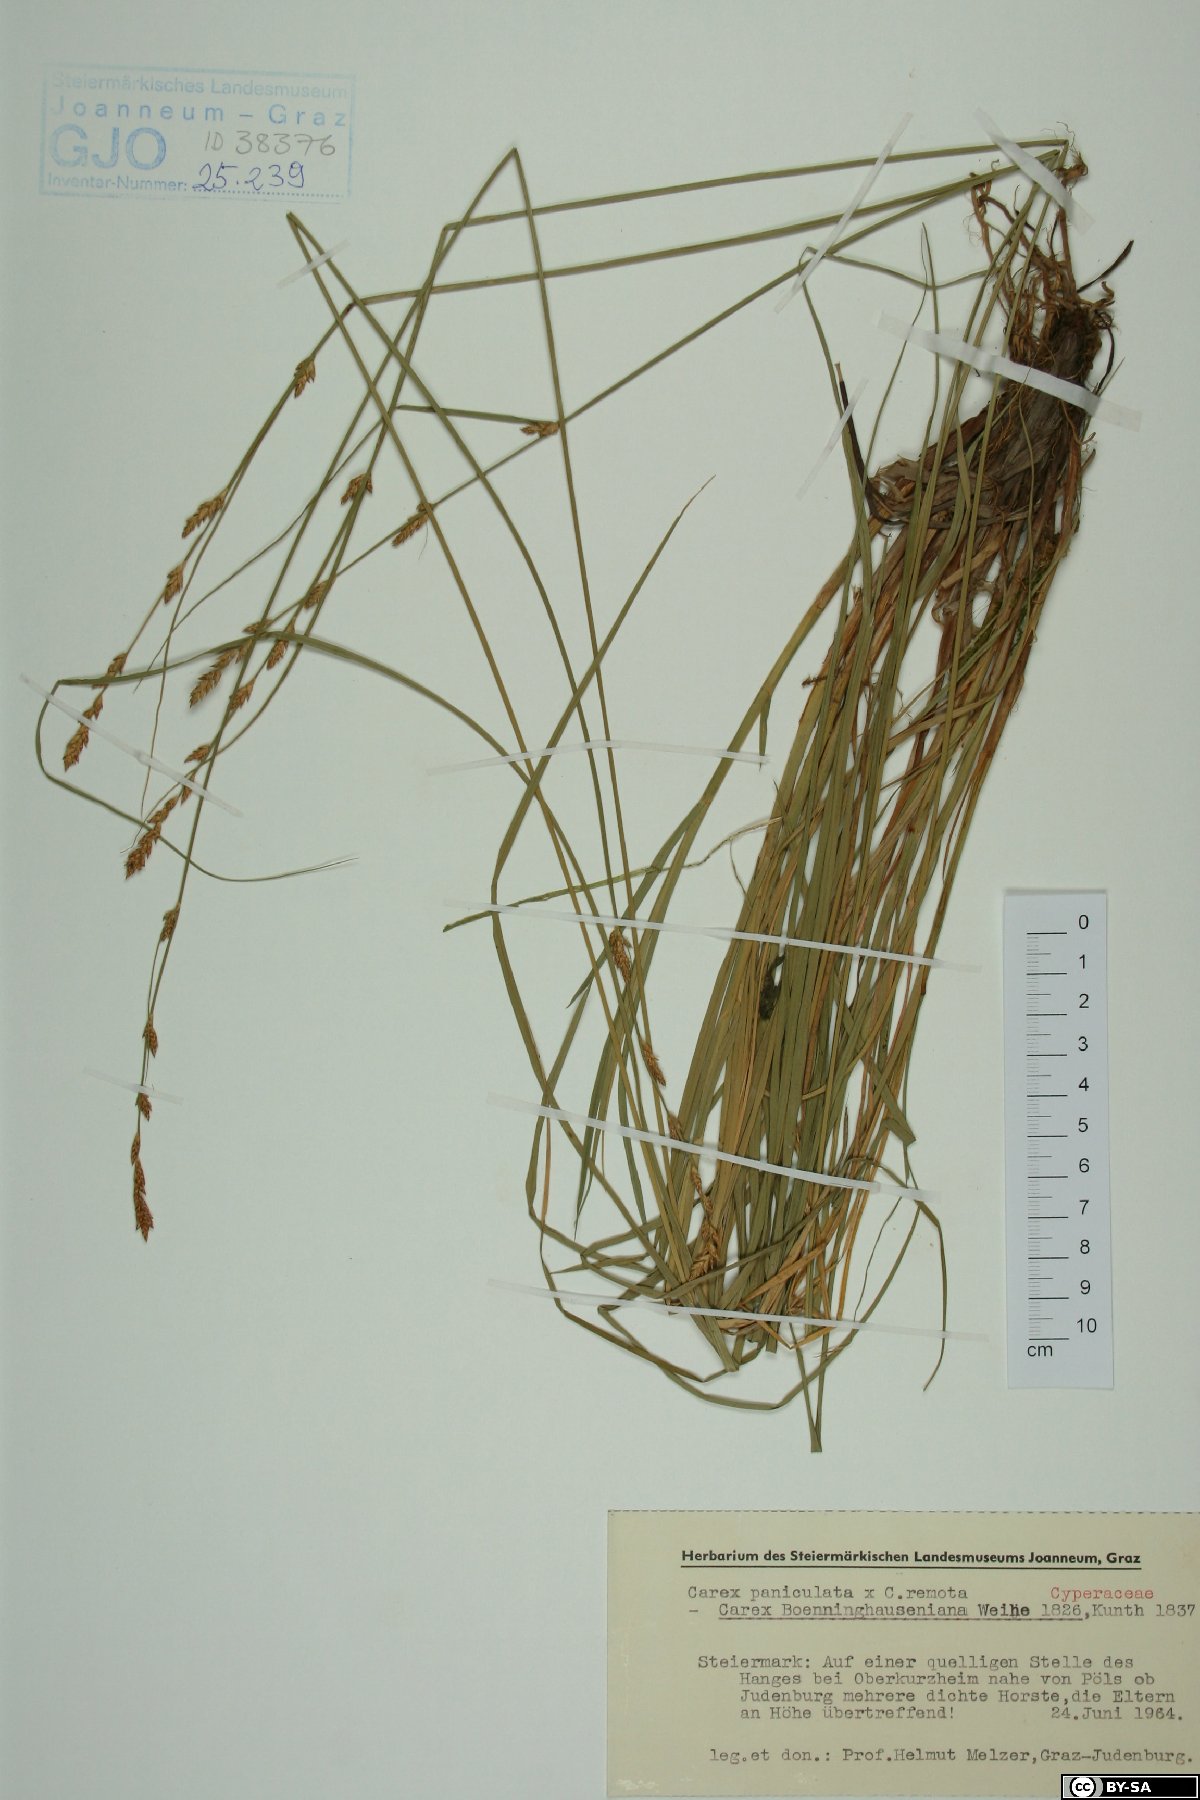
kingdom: Plantae
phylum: Tracheophyta
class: Liliopsida
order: Poales
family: Cyperaceae
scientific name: Cyperaceae
